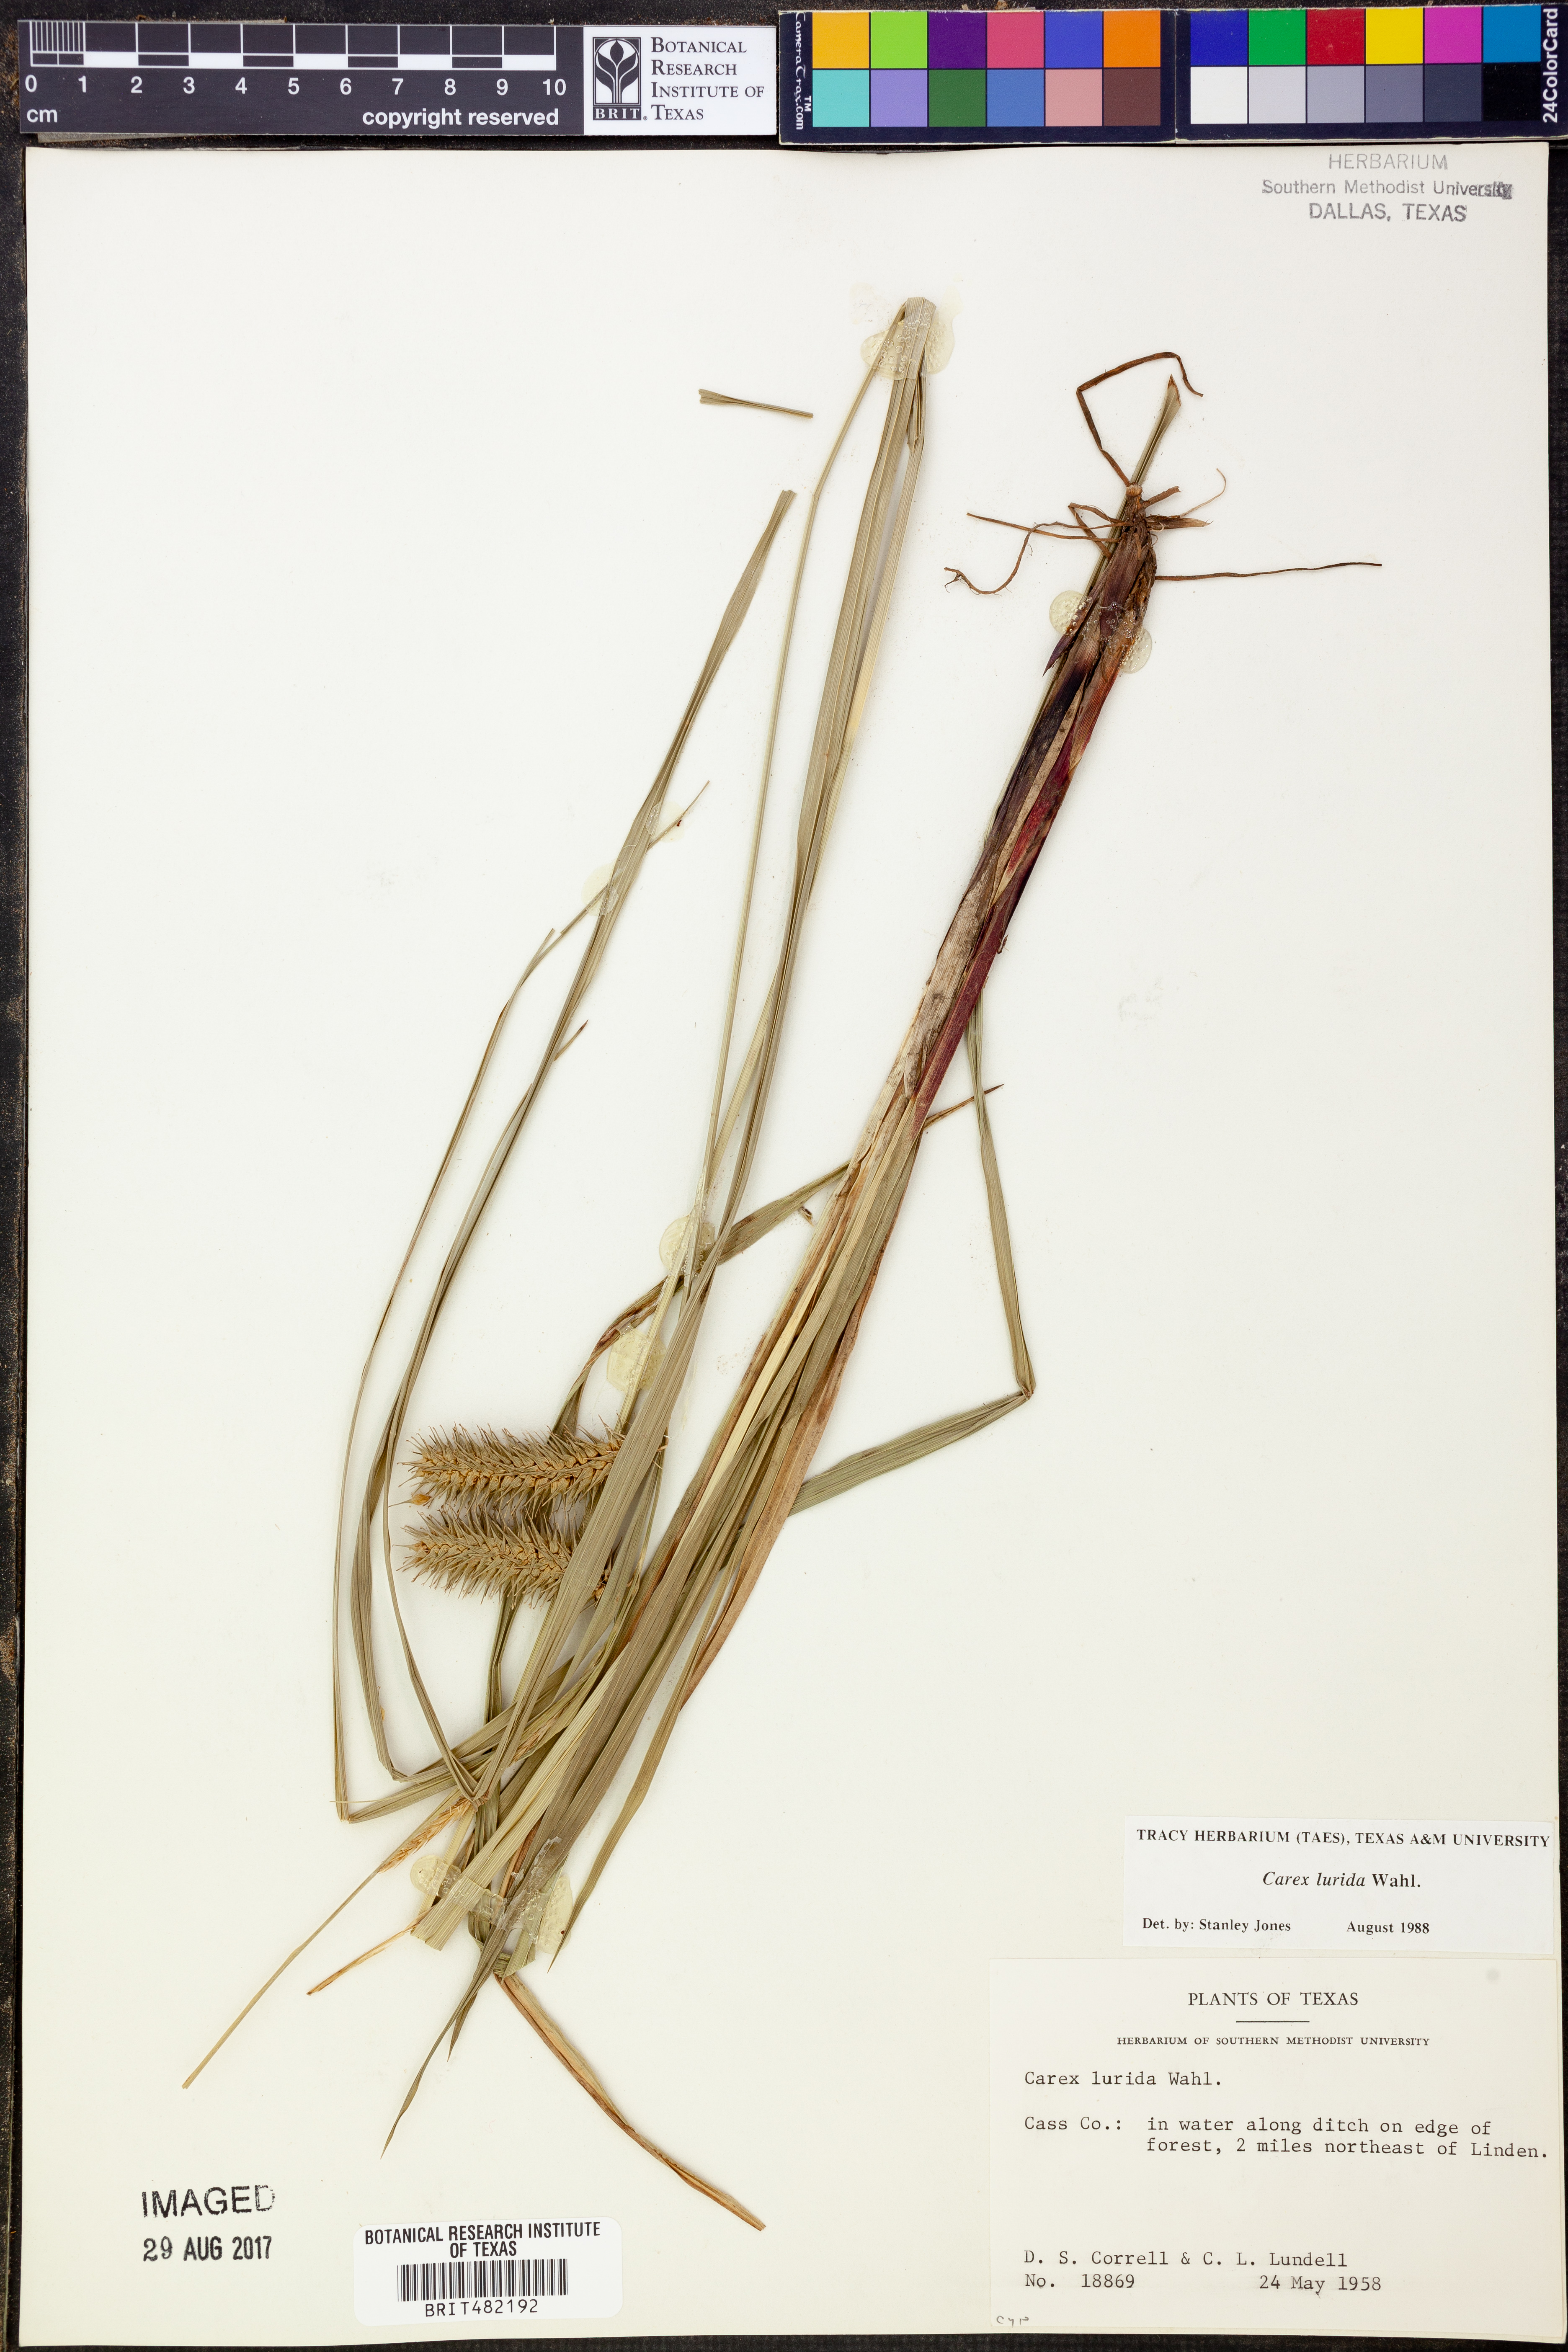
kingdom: Plantae
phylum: Tracheophyta
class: Liliopsida
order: Poales
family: Cyperaceae
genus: Carex
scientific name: Carex lurida
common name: Sallow sedge
